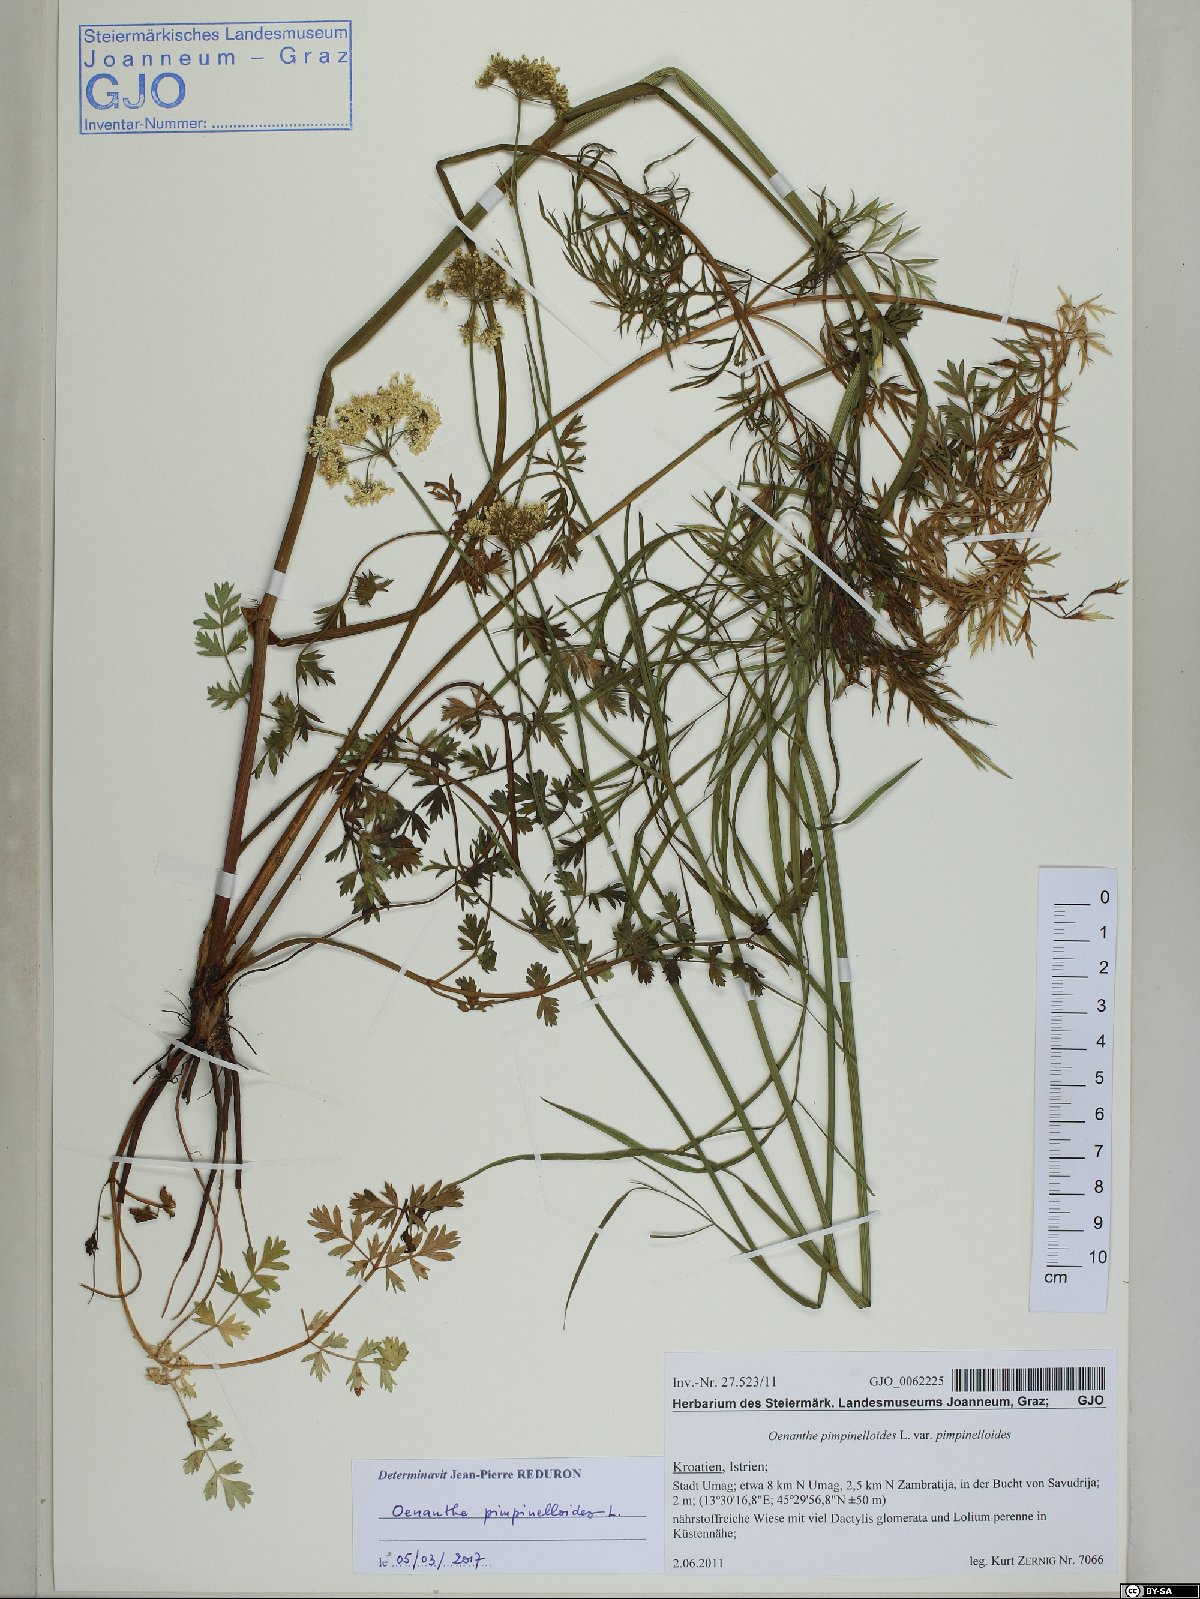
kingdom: Plantae
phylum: Tracheophyta
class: Magnoliopsida
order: Apiales
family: Apiaceae
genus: Oenanthe
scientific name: Oenanthe pimpinelloides
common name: Corky-fruited water-dropwort
